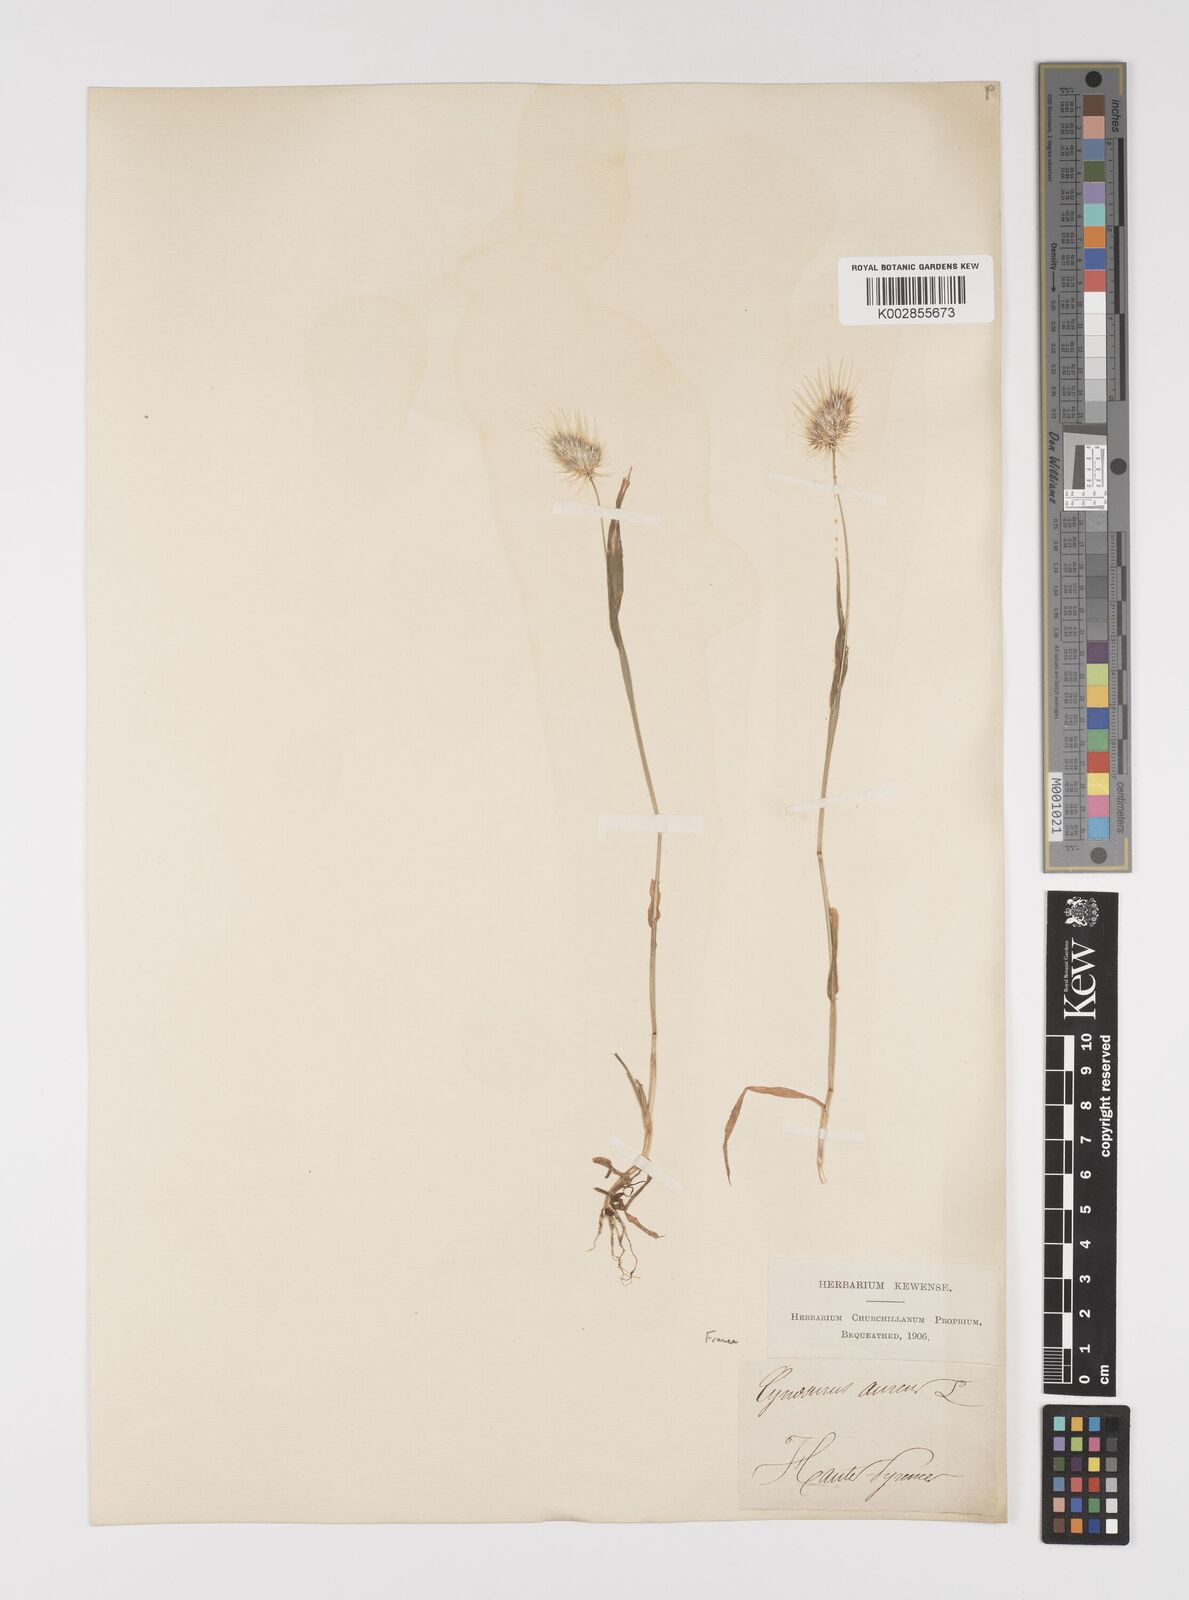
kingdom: Plantae
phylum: Tracheophyta
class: Liliopsida
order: Poales
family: Poaceae
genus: Cynosurus
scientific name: Cynosurus echinatus
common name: Rough dog's-tail
